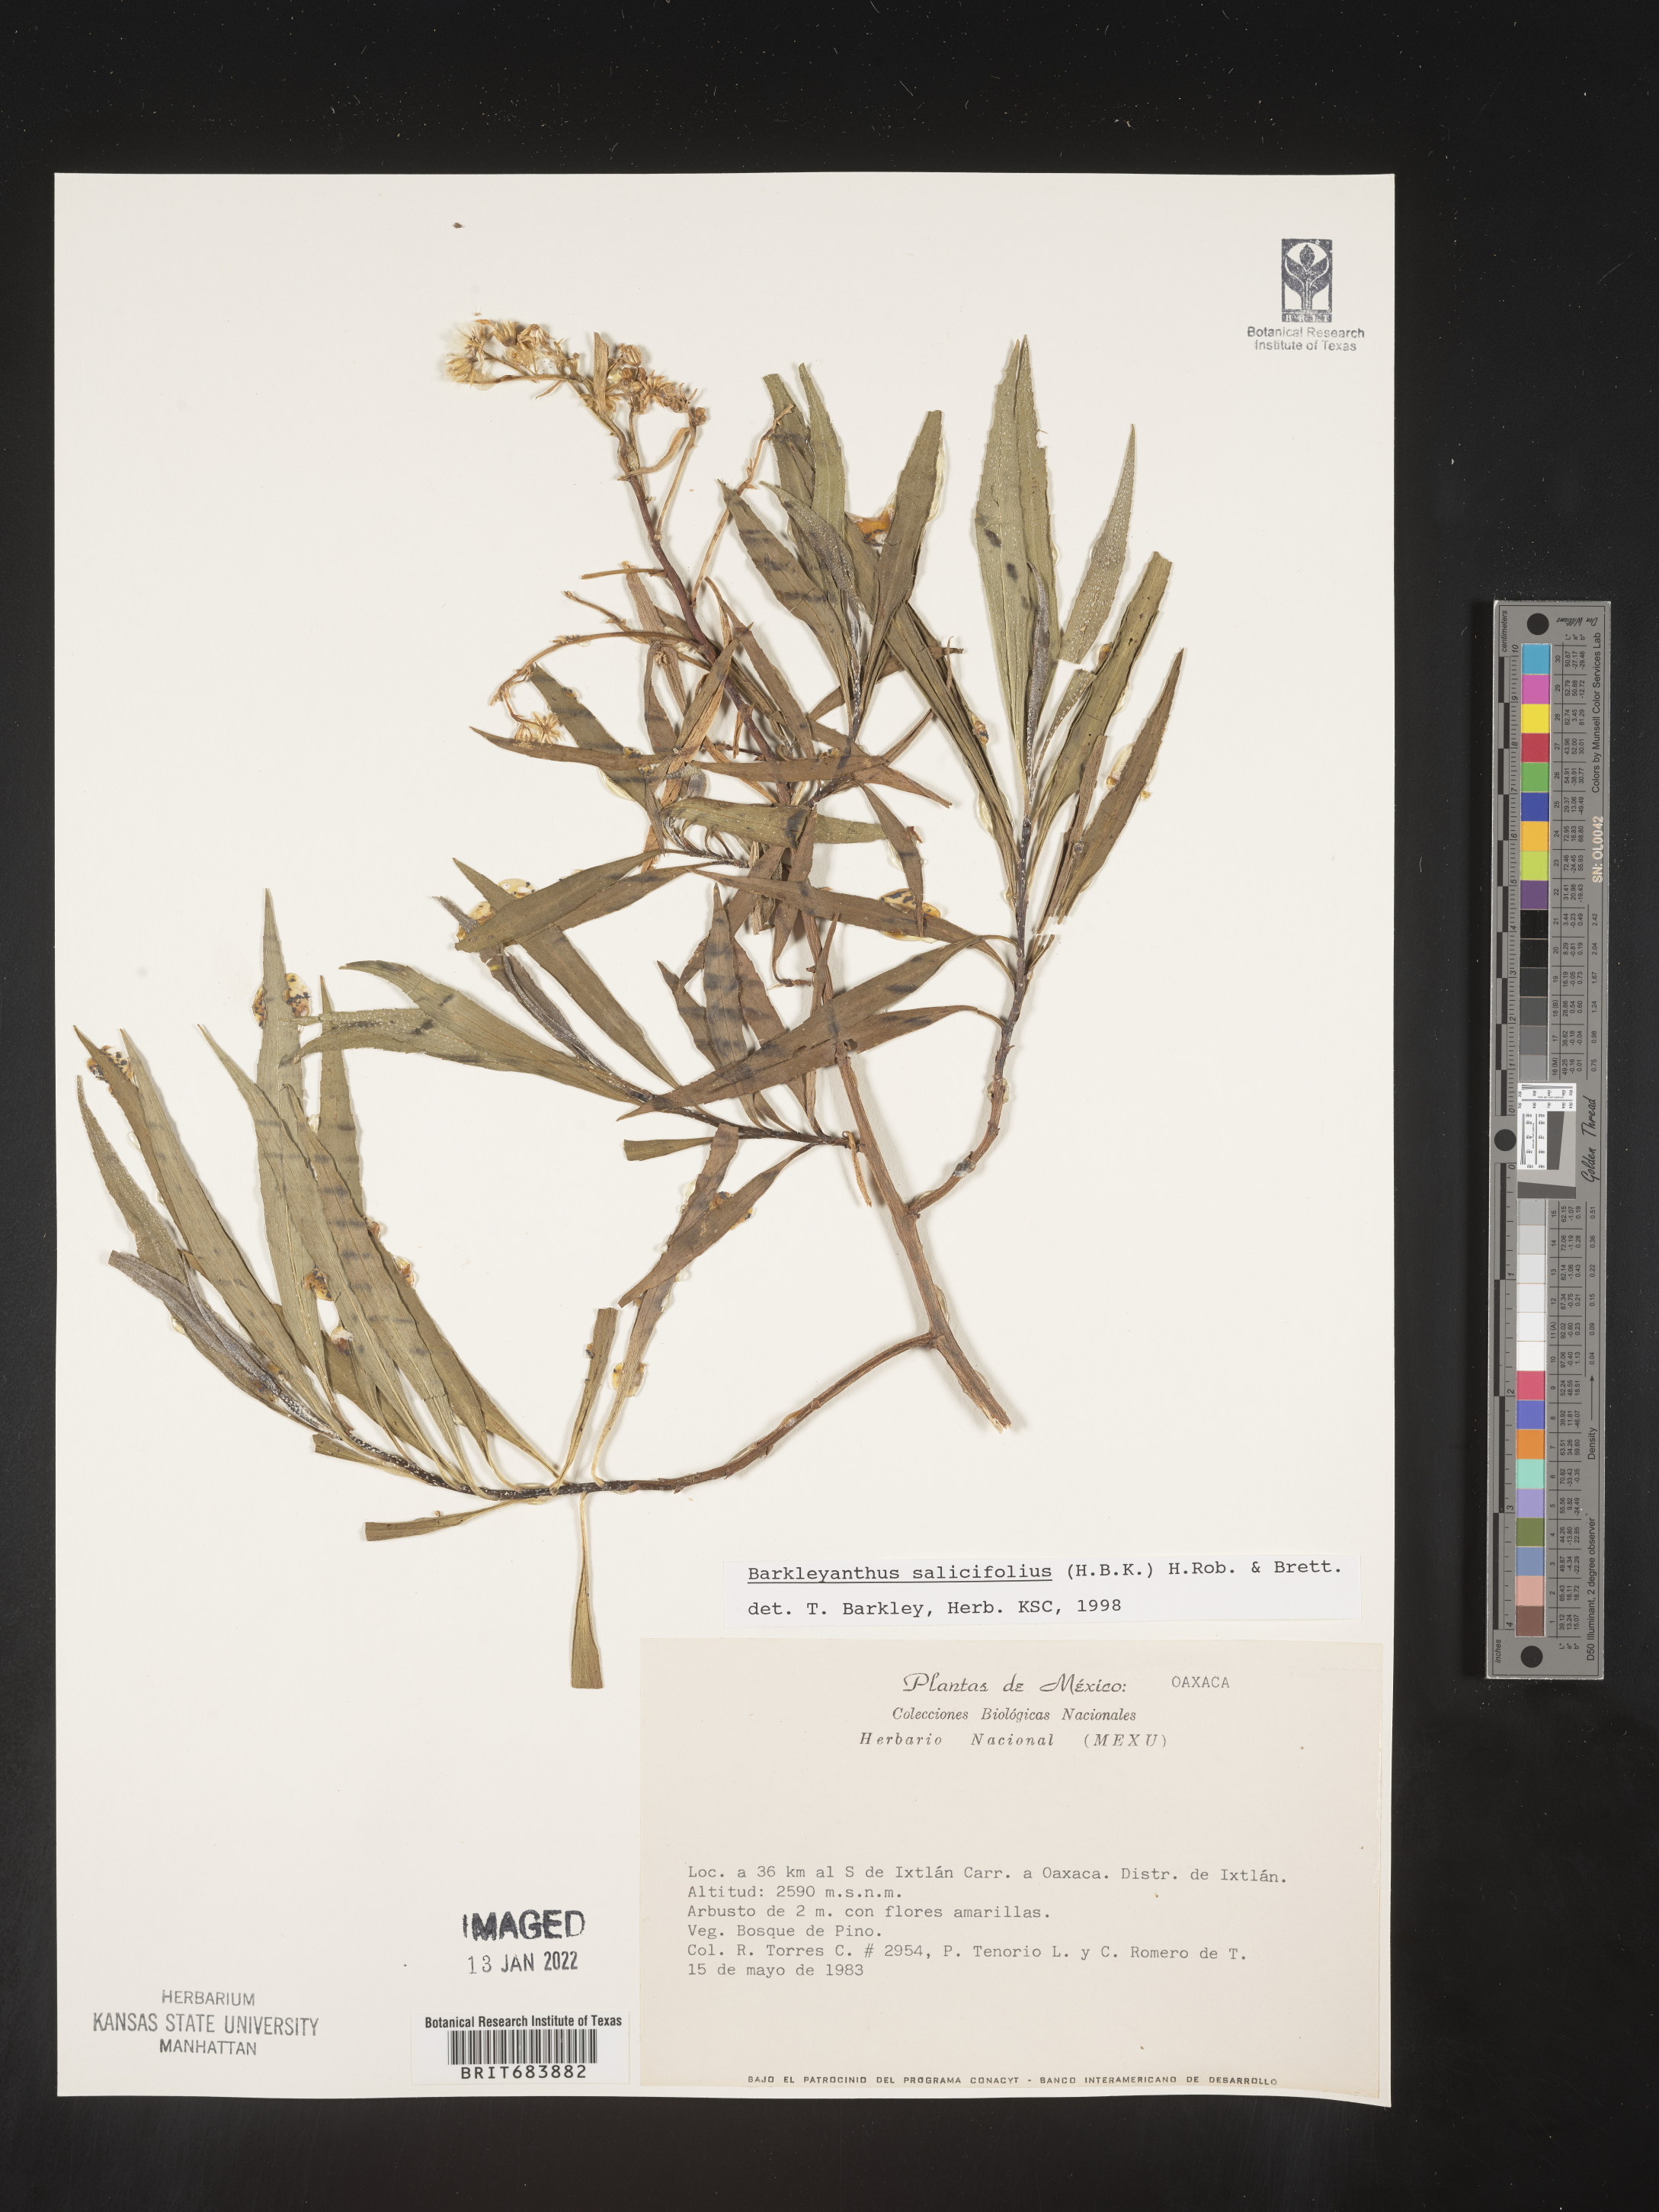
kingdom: Plantae
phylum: Tracheophyta
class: Magnoliopsida
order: Asterales
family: Asteraceae
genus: Barkleyanthus
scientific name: Barkleyanthus
